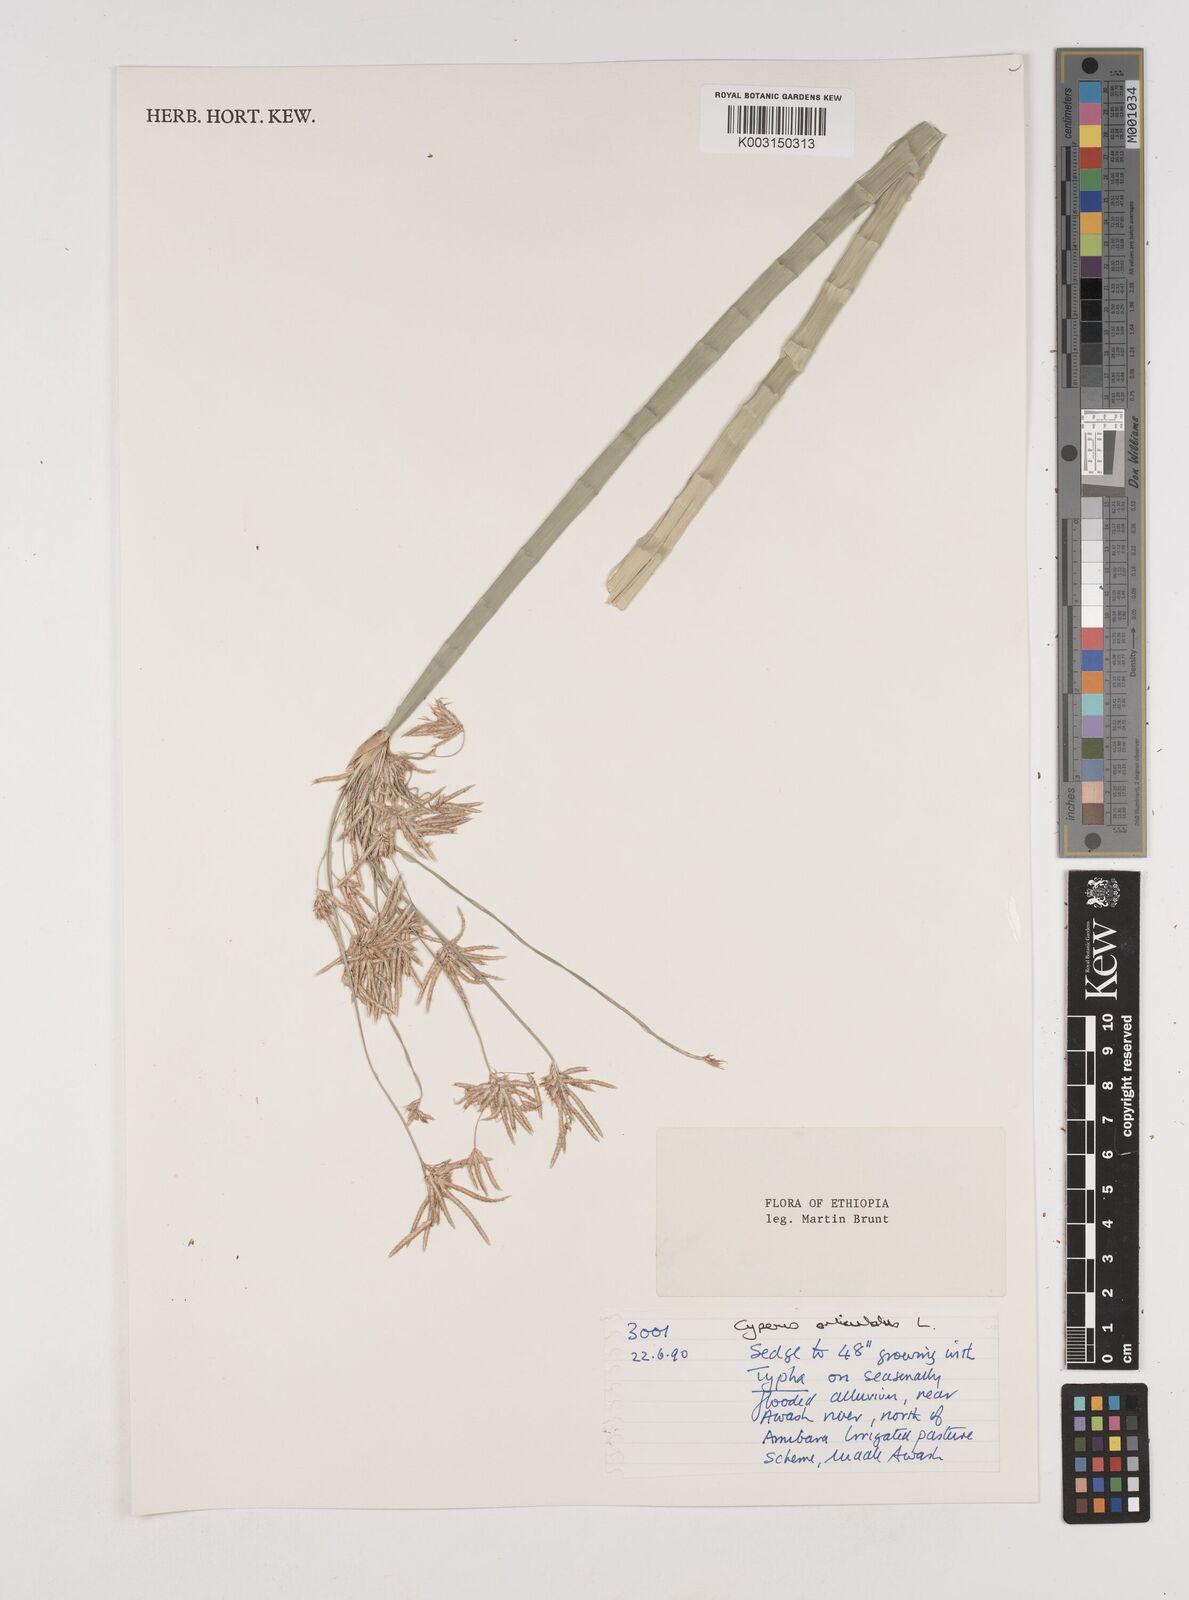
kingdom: Plantae
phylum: Tracheophyta
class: Liliopsida
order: Poales
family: Cyperaceae
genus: Cyperus
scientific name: Cyperus articulatus
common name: Jointed flatsedge
